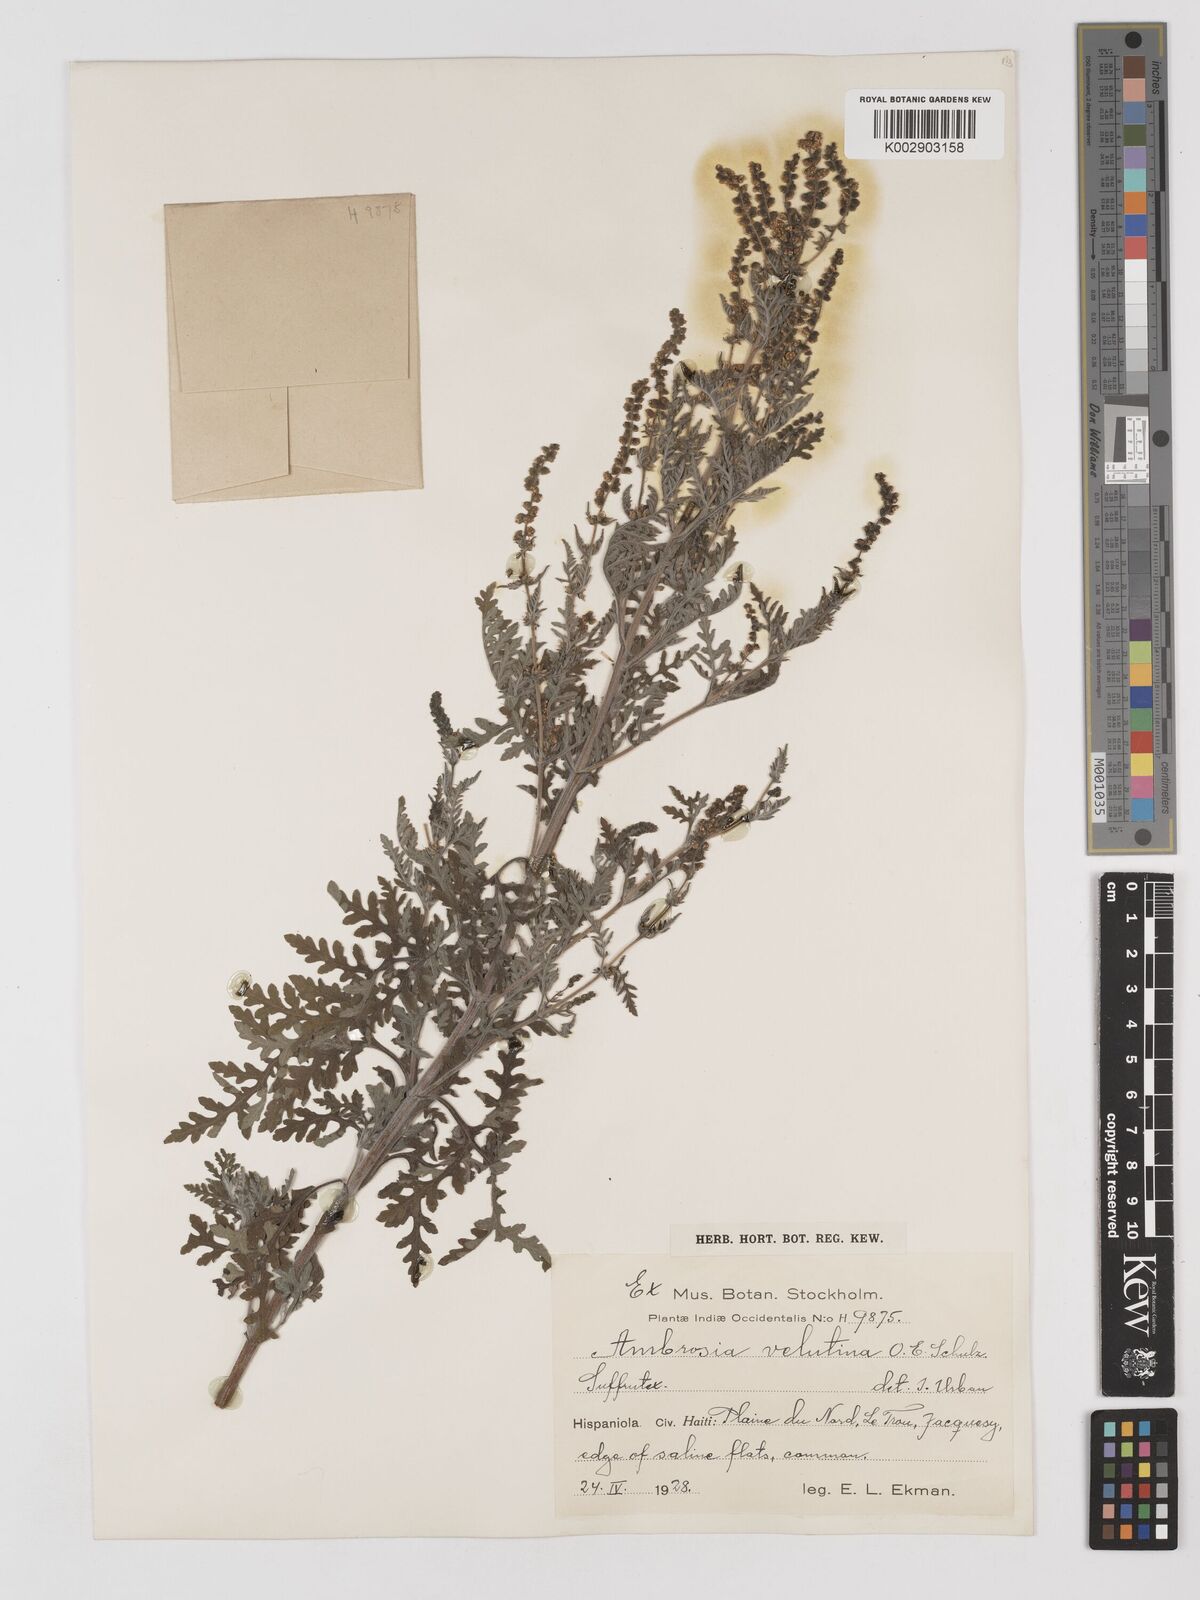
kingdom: Plantae
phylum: Tracheophyta
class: Magnoliopsida
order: Asterales
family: Asteraceae
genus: Ambrosia
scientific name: Ambrosia velutina
